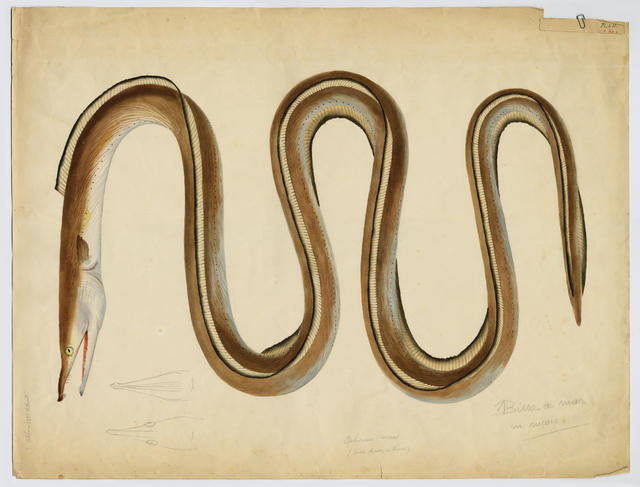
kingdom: Animalia
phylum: Chordata
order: Anguilliformes
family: Ophichthidae
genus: Ophisurus
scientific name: Ophisurus serpens
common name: Serpent eel
